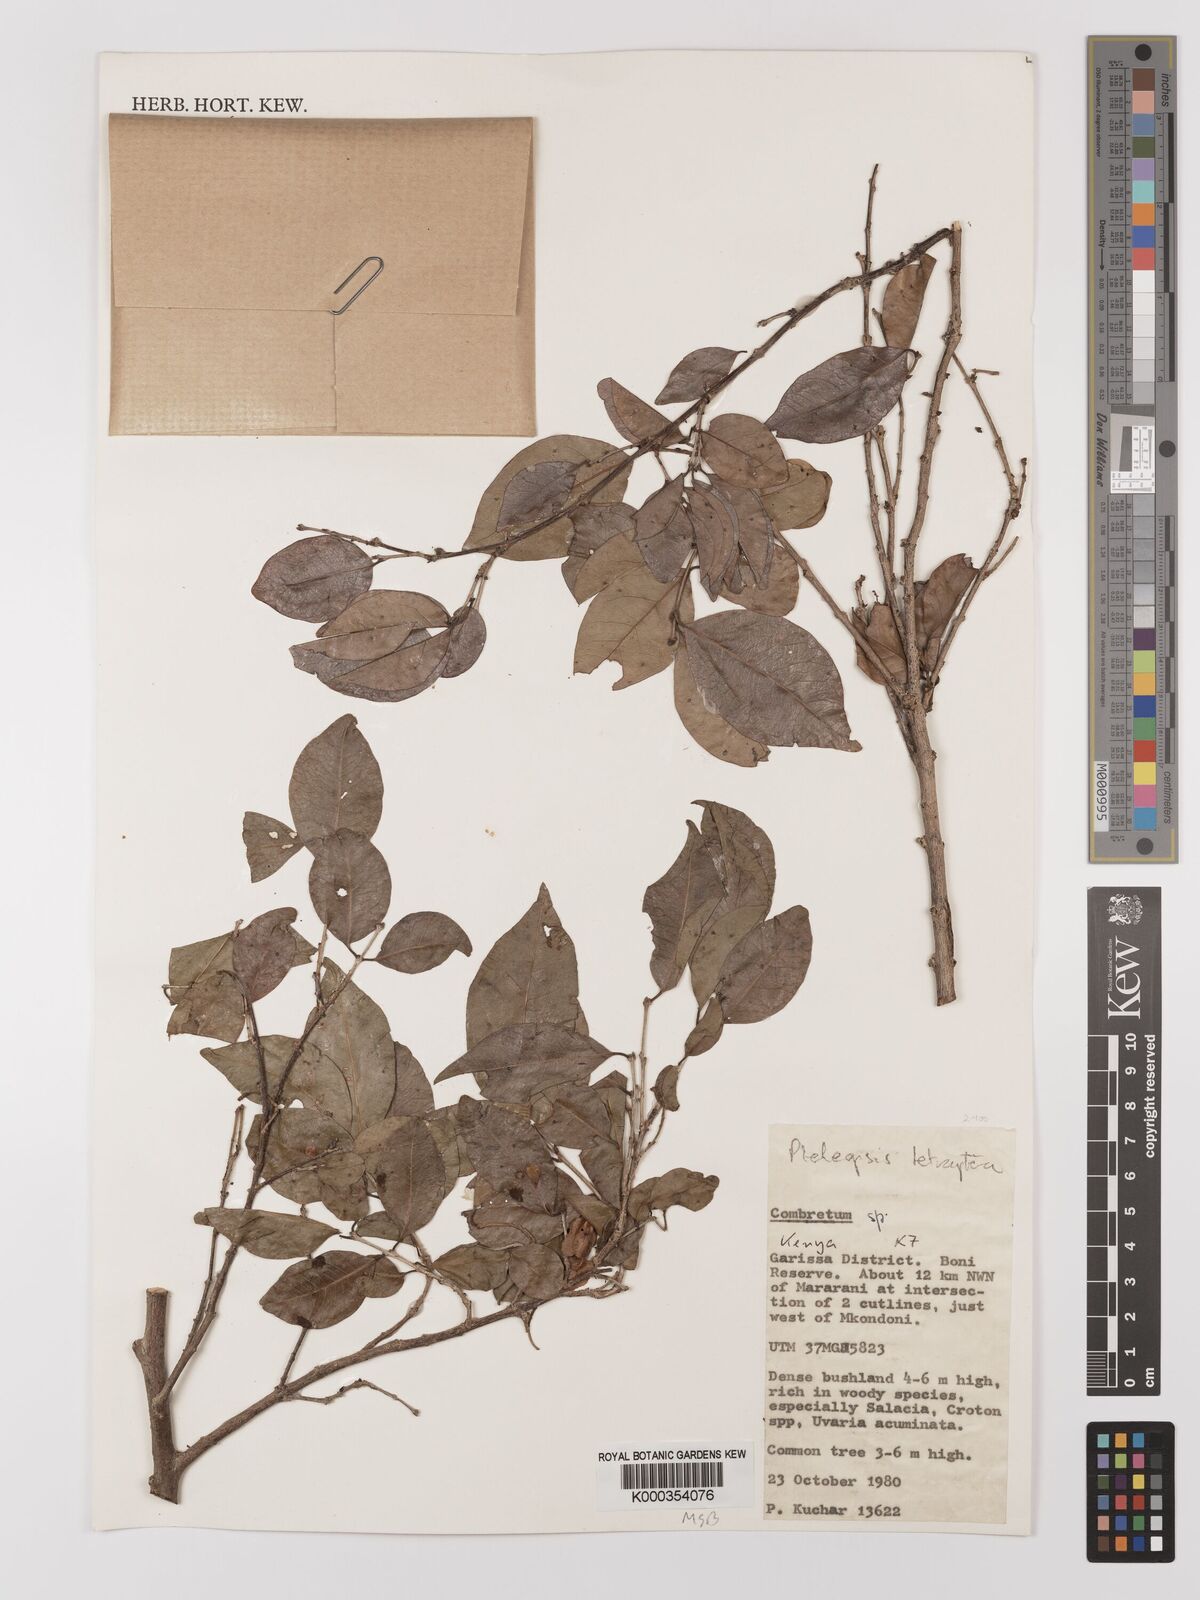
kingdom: Plantae
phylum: Tracheophyta
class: Magnoliopsida
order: Myrtales
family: Combretaceae
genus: Terminalia
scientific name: Terminalia tetraptera
